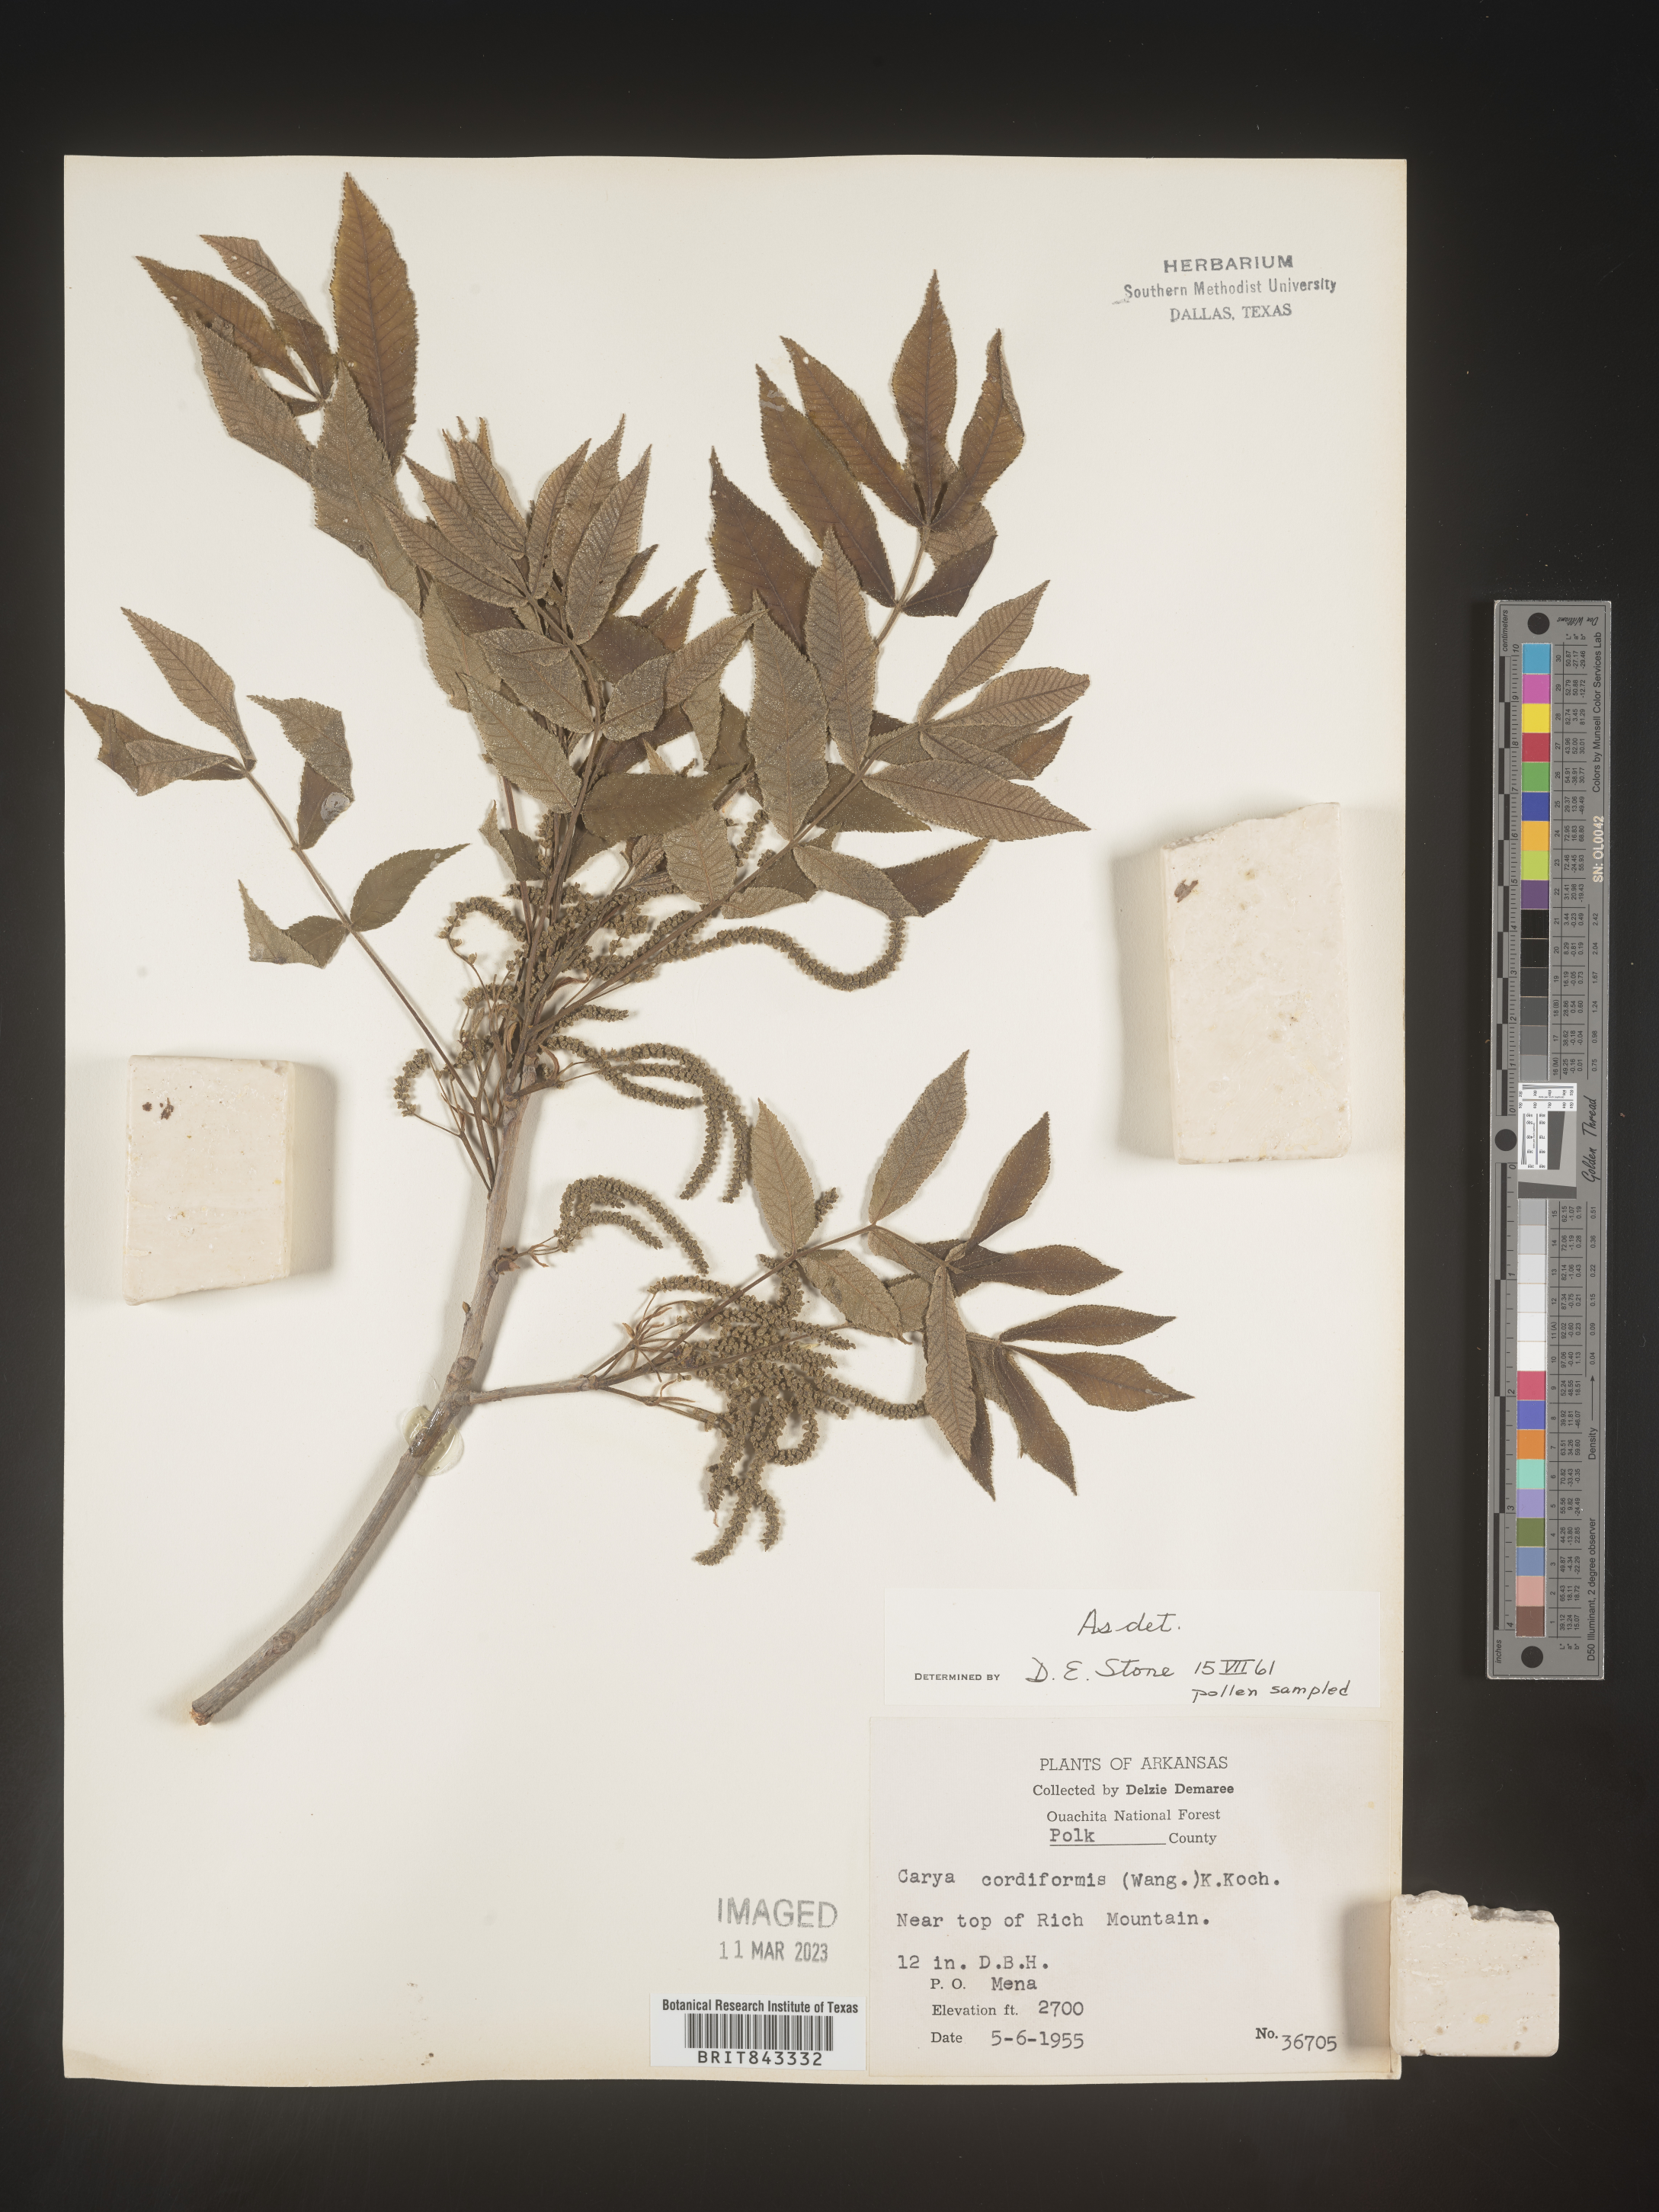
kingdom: Plantae
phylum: Tracheophyta
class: Magnoliopsida
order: Fagales
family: Juglandaceae
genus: Carya
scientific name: Carya cordiformis
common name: Bitternut hickory
